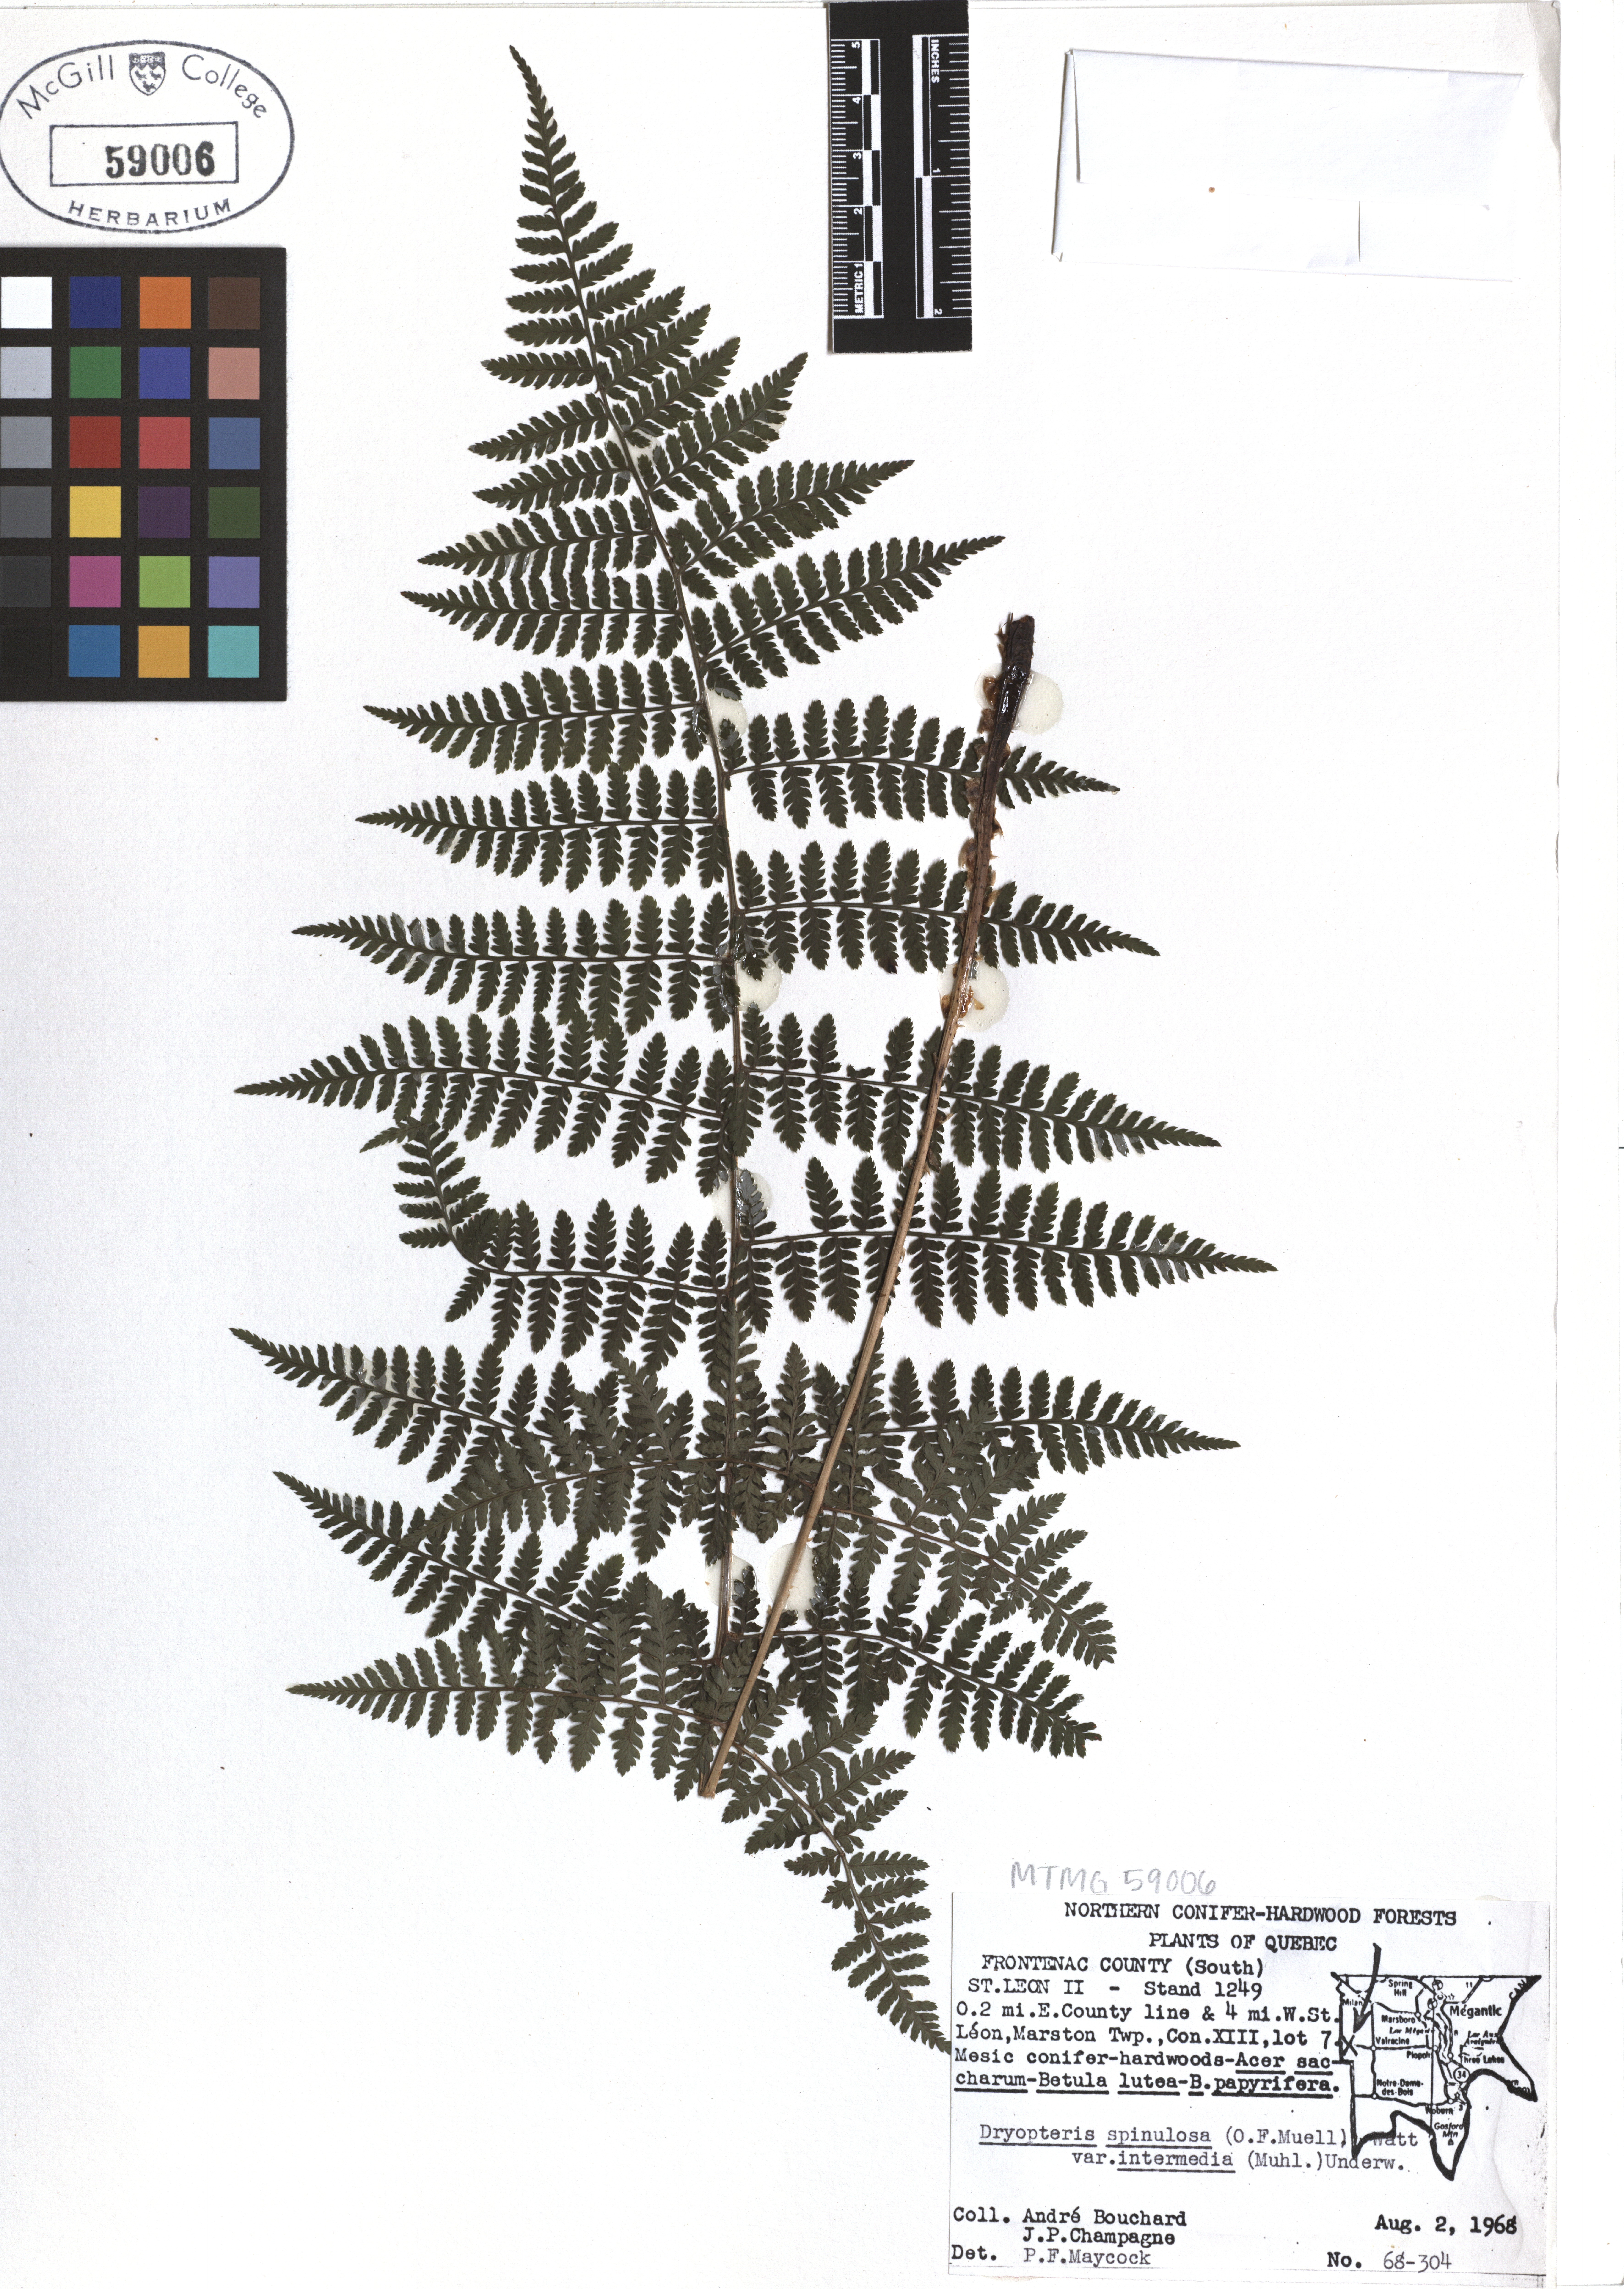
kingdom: Plantae
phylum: Tracheophyta
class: Polypodiopsida
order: Polypodiales
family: Dryopteridaceae
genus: Dryopteris
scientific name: Dryopteris intermedia
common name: Evergreen wood fern
